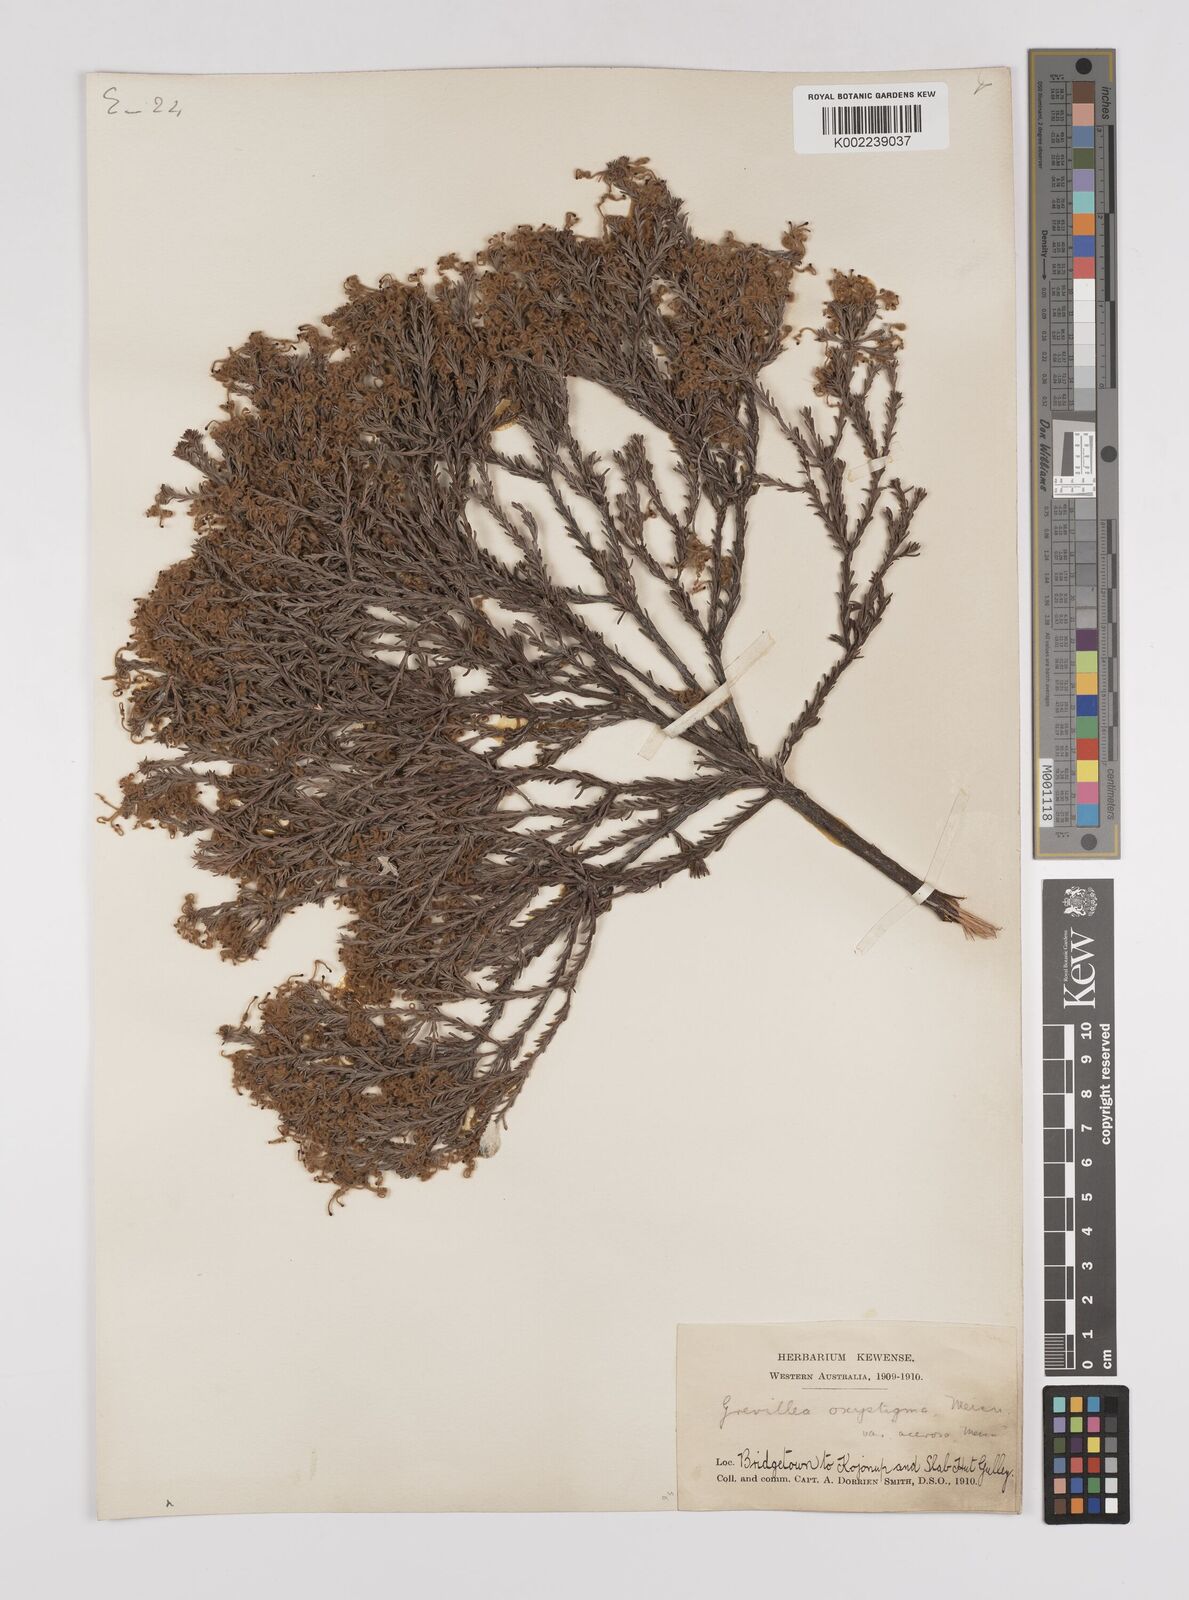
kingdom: Plantae
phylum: Tracheophyta
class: Magnoliopsida
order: Proteales
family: Proteaceae
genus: Grevillea
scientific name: Grevillea pilulifera
